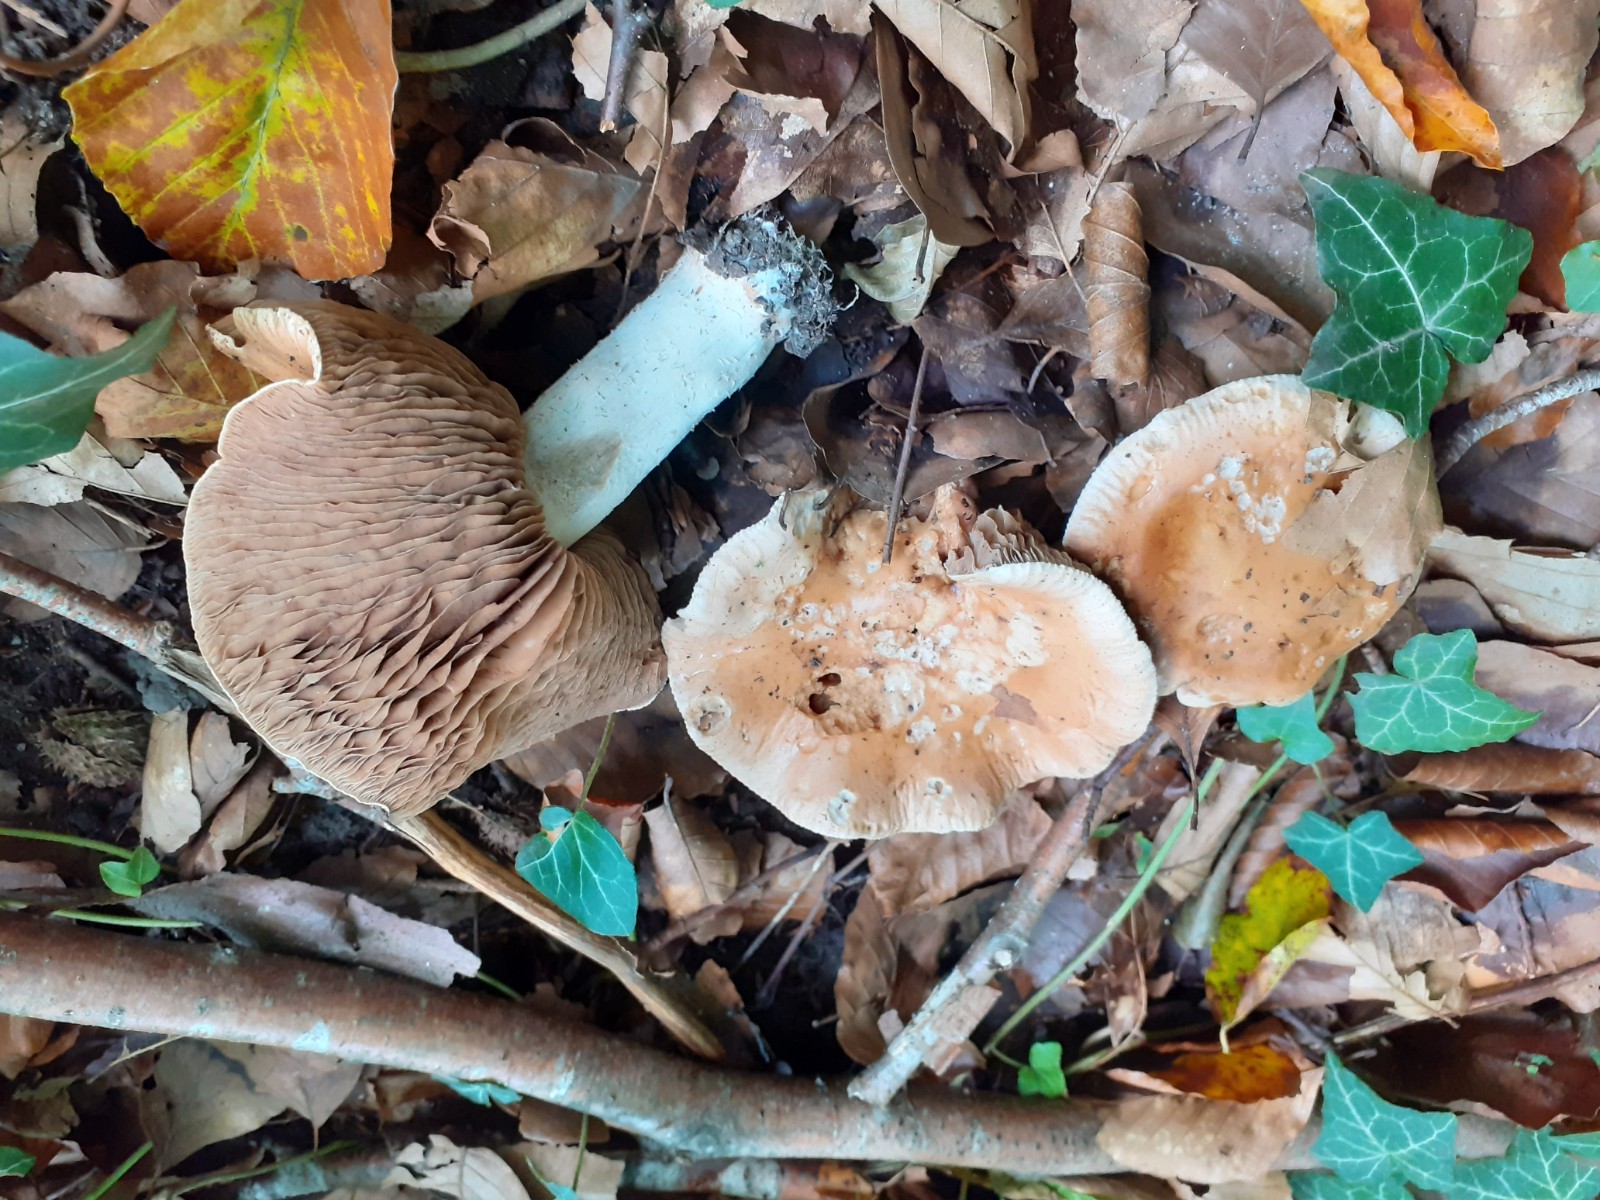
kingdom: Fungi
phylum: Basidiomycota
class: Agaricomycetes
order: Agaricales
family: Hymenogastraceae
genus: Hebeloma
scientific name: Hebeloma sinapizans
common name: ræddike-tåreblad
